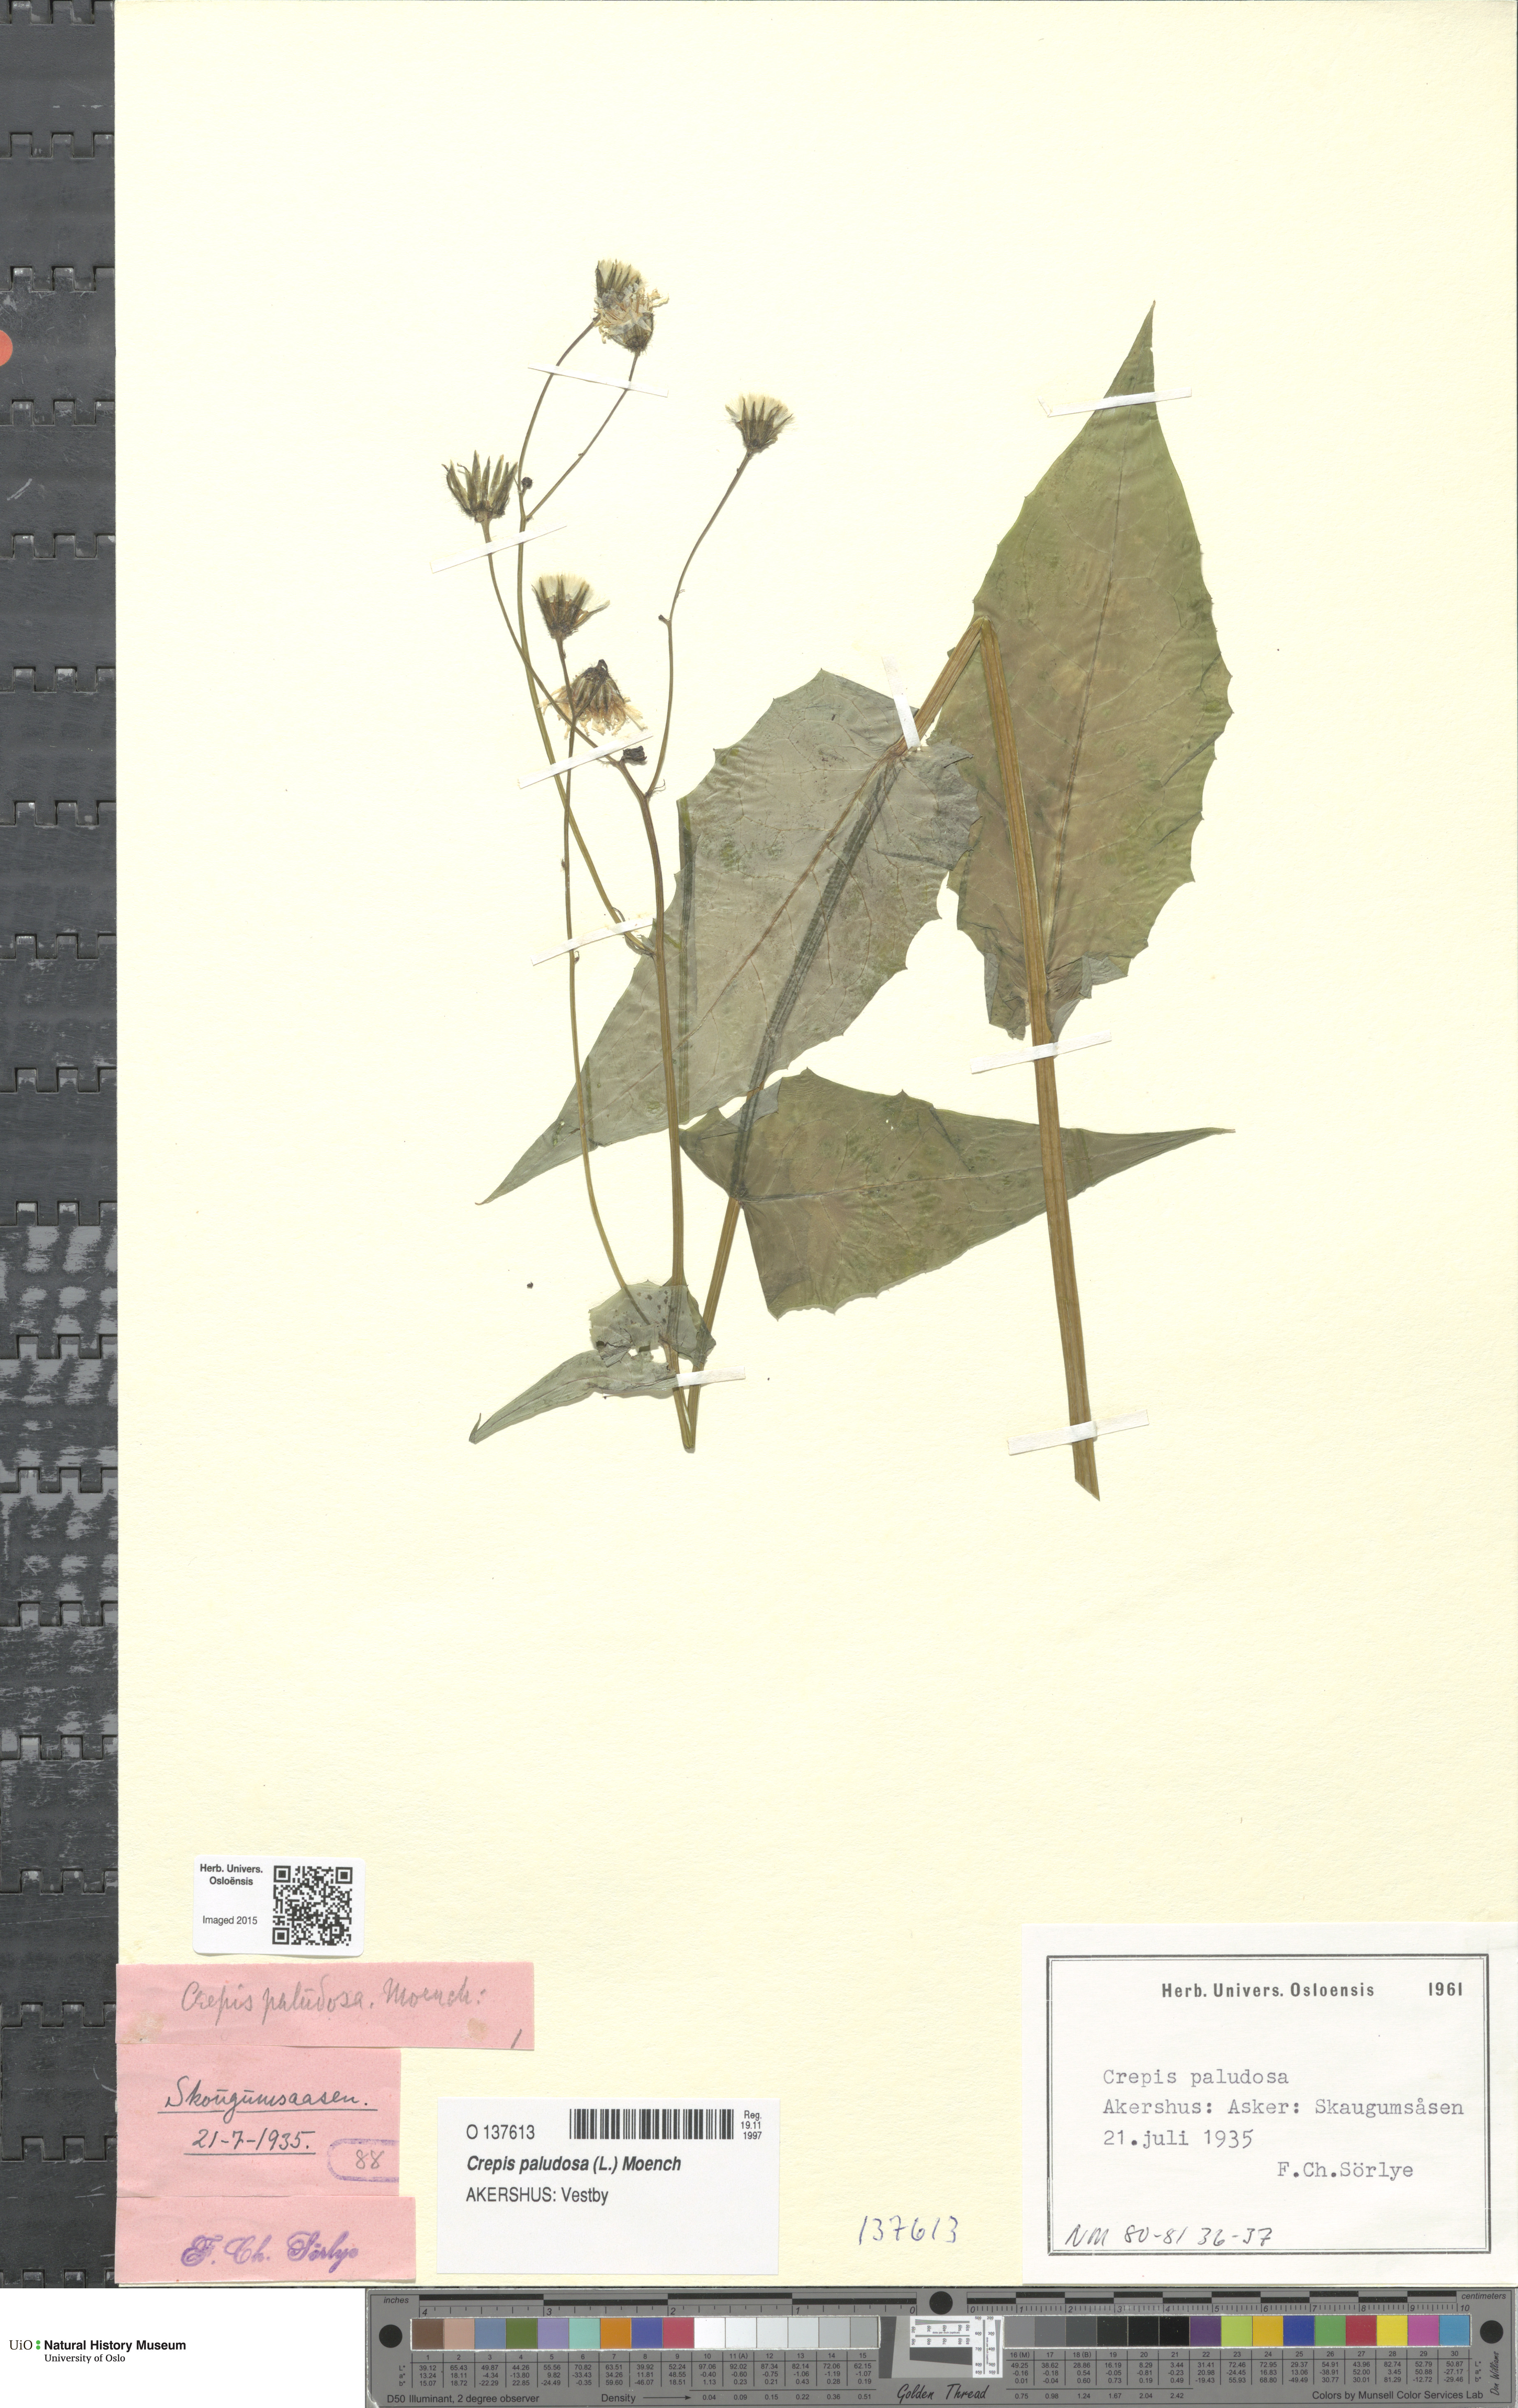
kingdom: Plantae
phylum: Tracheophyta
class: Magnoliopsida
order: Asterales
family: Asteraceae
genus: Crepis
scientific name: Crepis paludosa
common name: Marsh hawk's-beard
